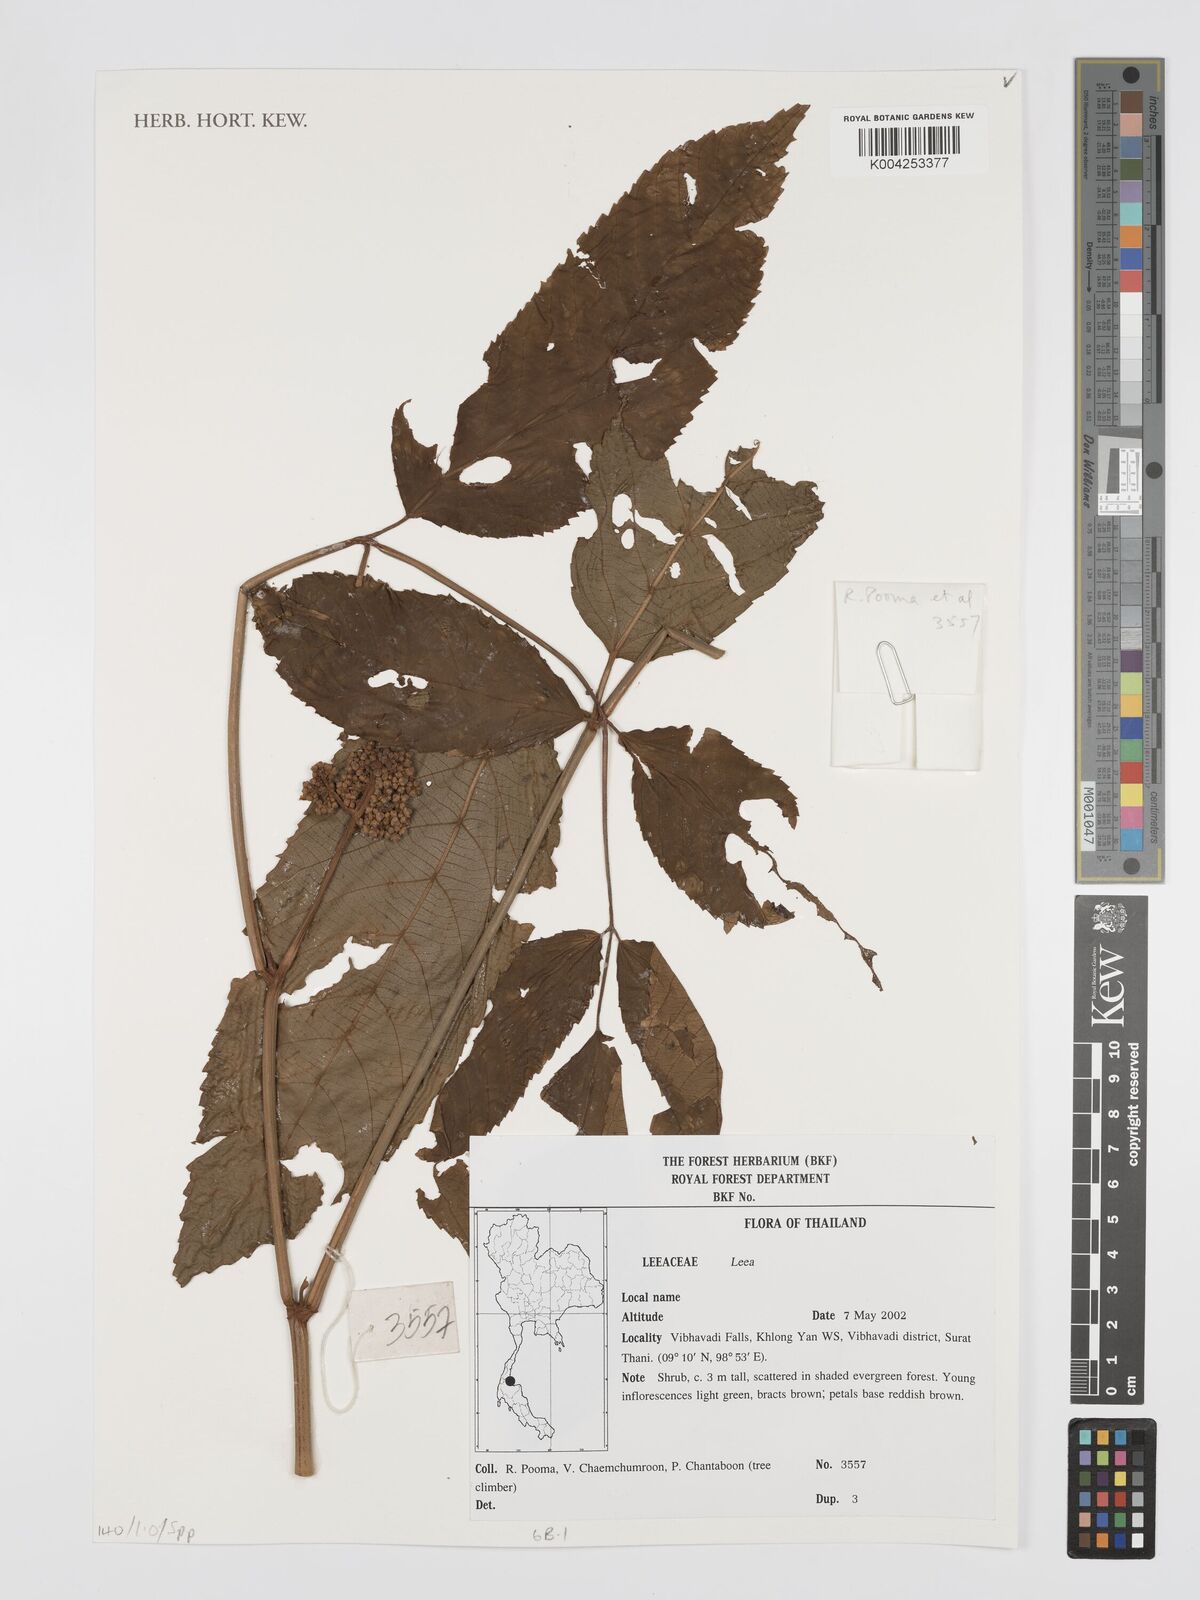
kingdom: Plantae
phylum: Tracheophyta
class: Magnoliopsida
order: Vitales
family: Vitaceae
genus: Leea
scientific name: Leea
